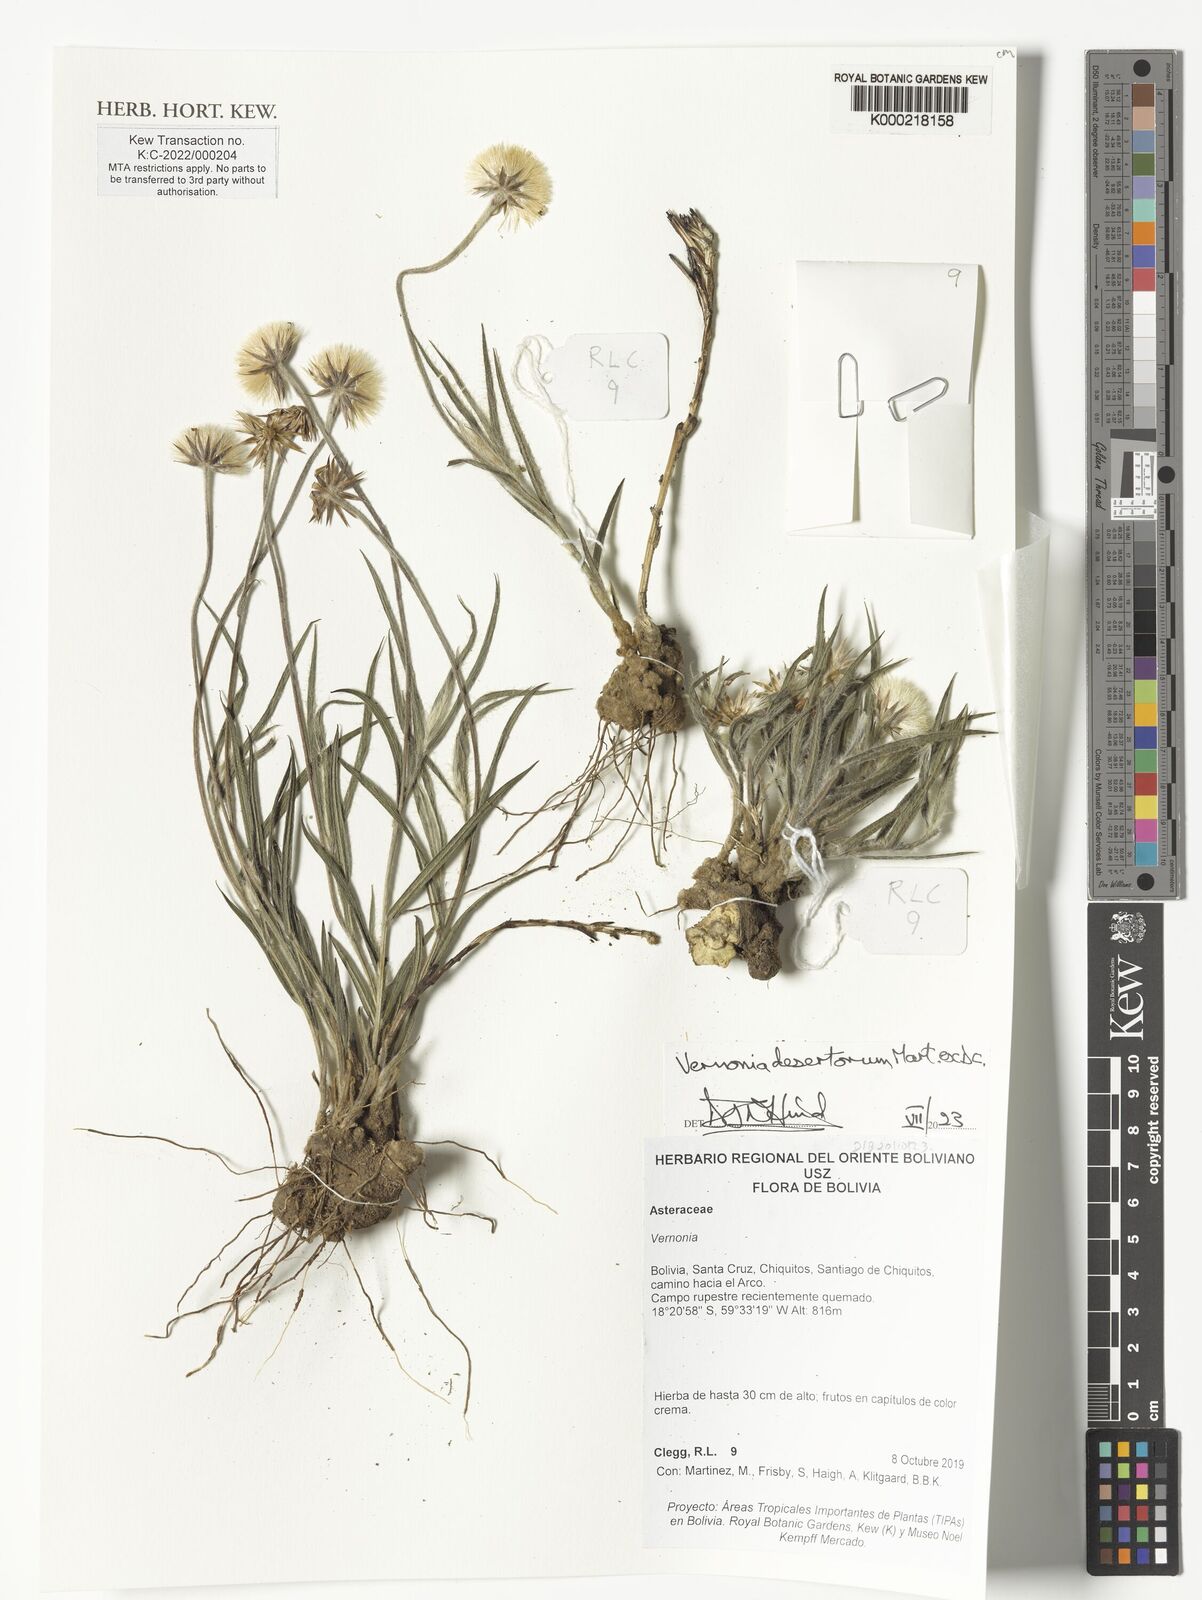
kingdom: Plantae
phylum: Tracheophyta
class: Magnoliopsida
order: Asterales
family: Asteraceae
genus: Chrysolaena
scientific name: Chrysolaena desertorum
